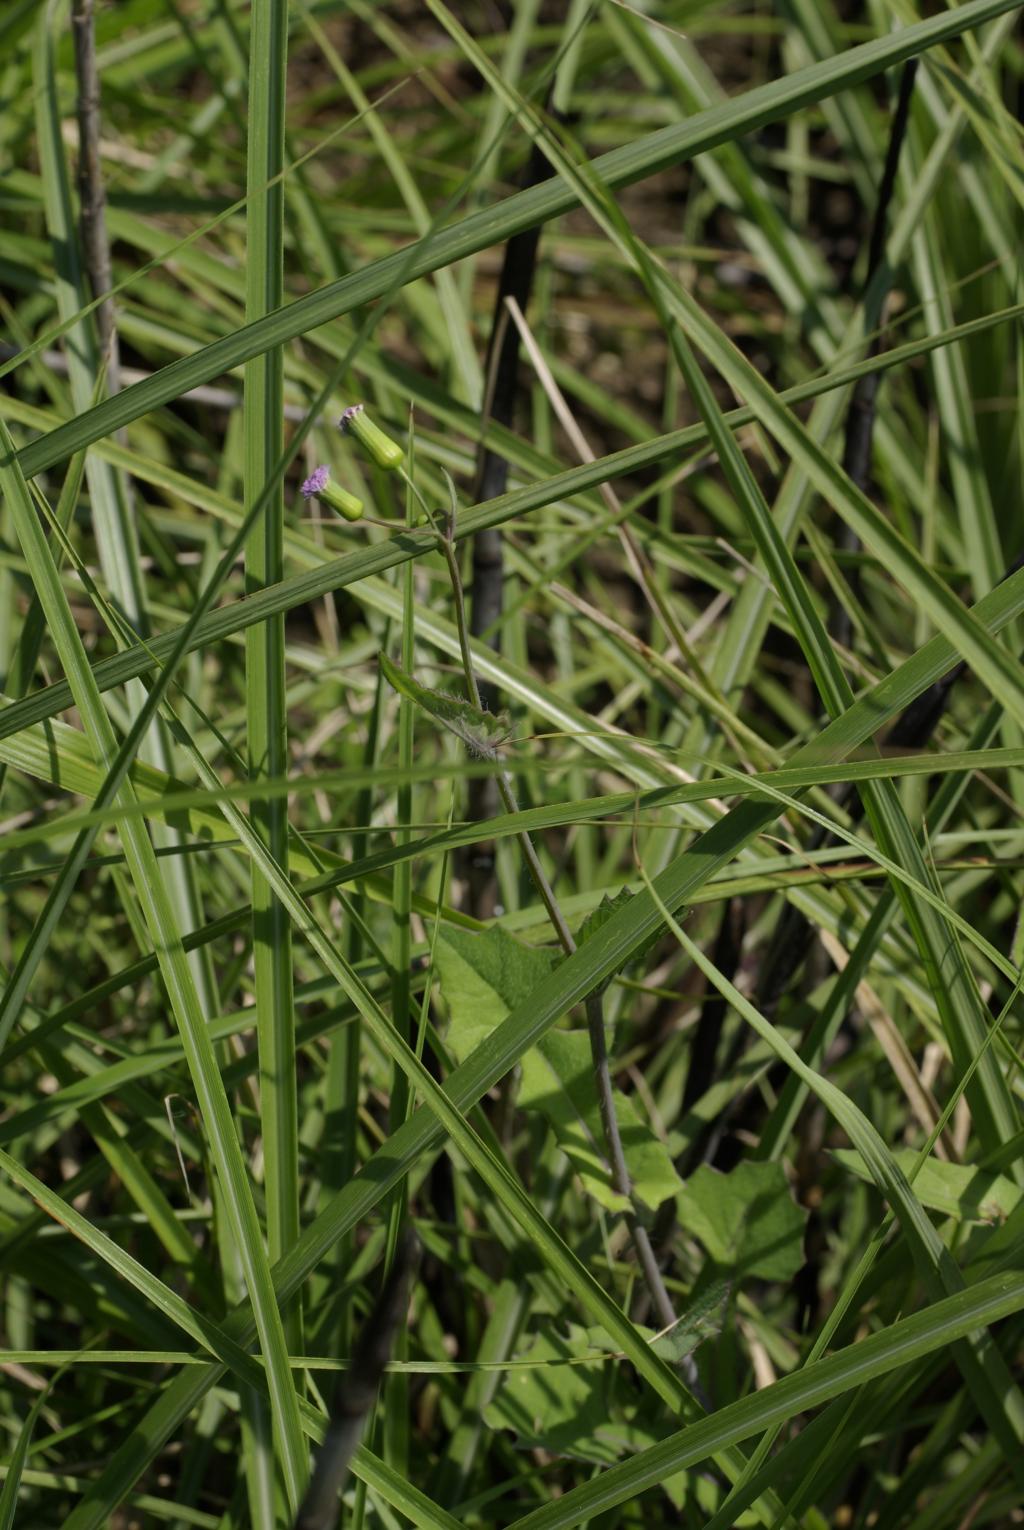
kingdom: Plantae
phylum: Tracheophyta
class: Magnoliopsida
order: Asterales
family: Asteraceae
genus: Emilia
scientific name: Emilia sonchifolia
